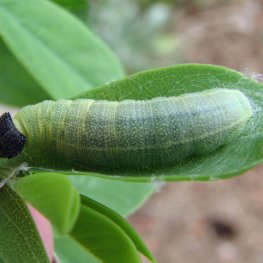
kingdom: Animalia
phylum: Arthropoda
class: Insecta
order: Lepidoptera
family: Hesperiidae
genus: Gesta
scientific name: Gesta
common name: Wild Indigo Duskywing
